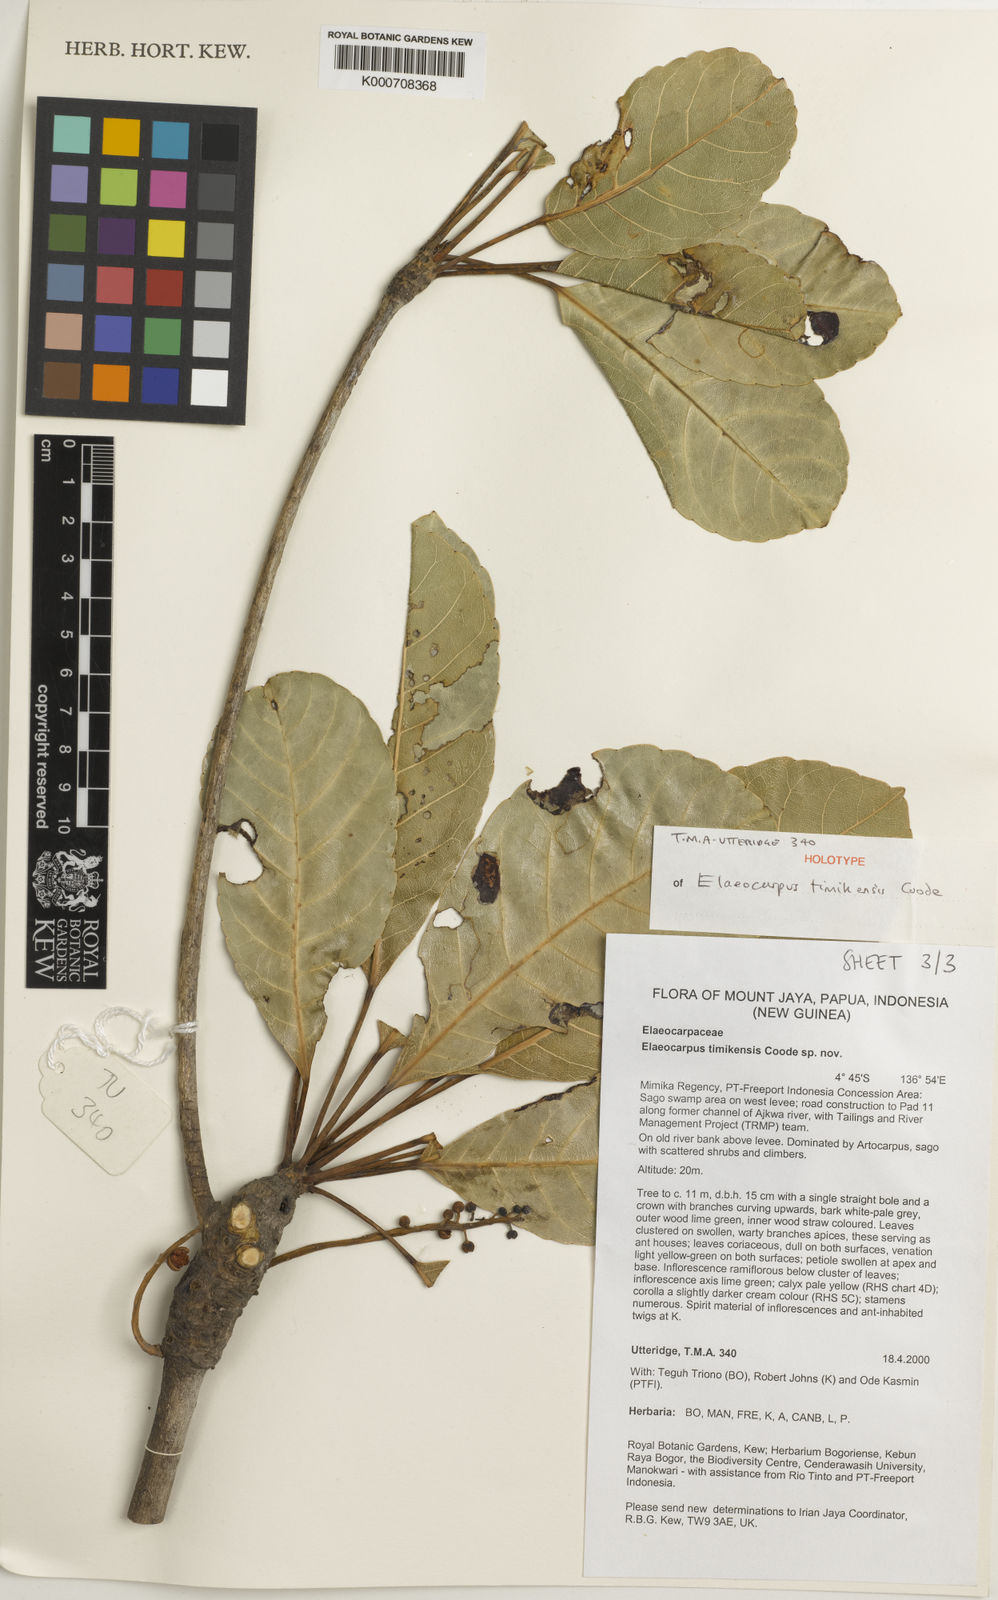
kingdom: Plantae
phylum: Tracheophyta
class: Magnoliopsida
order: Oxalidales
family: Elaeocarpaceae
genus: Elaeocarpus
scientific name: Elaeocarpus timikensis
